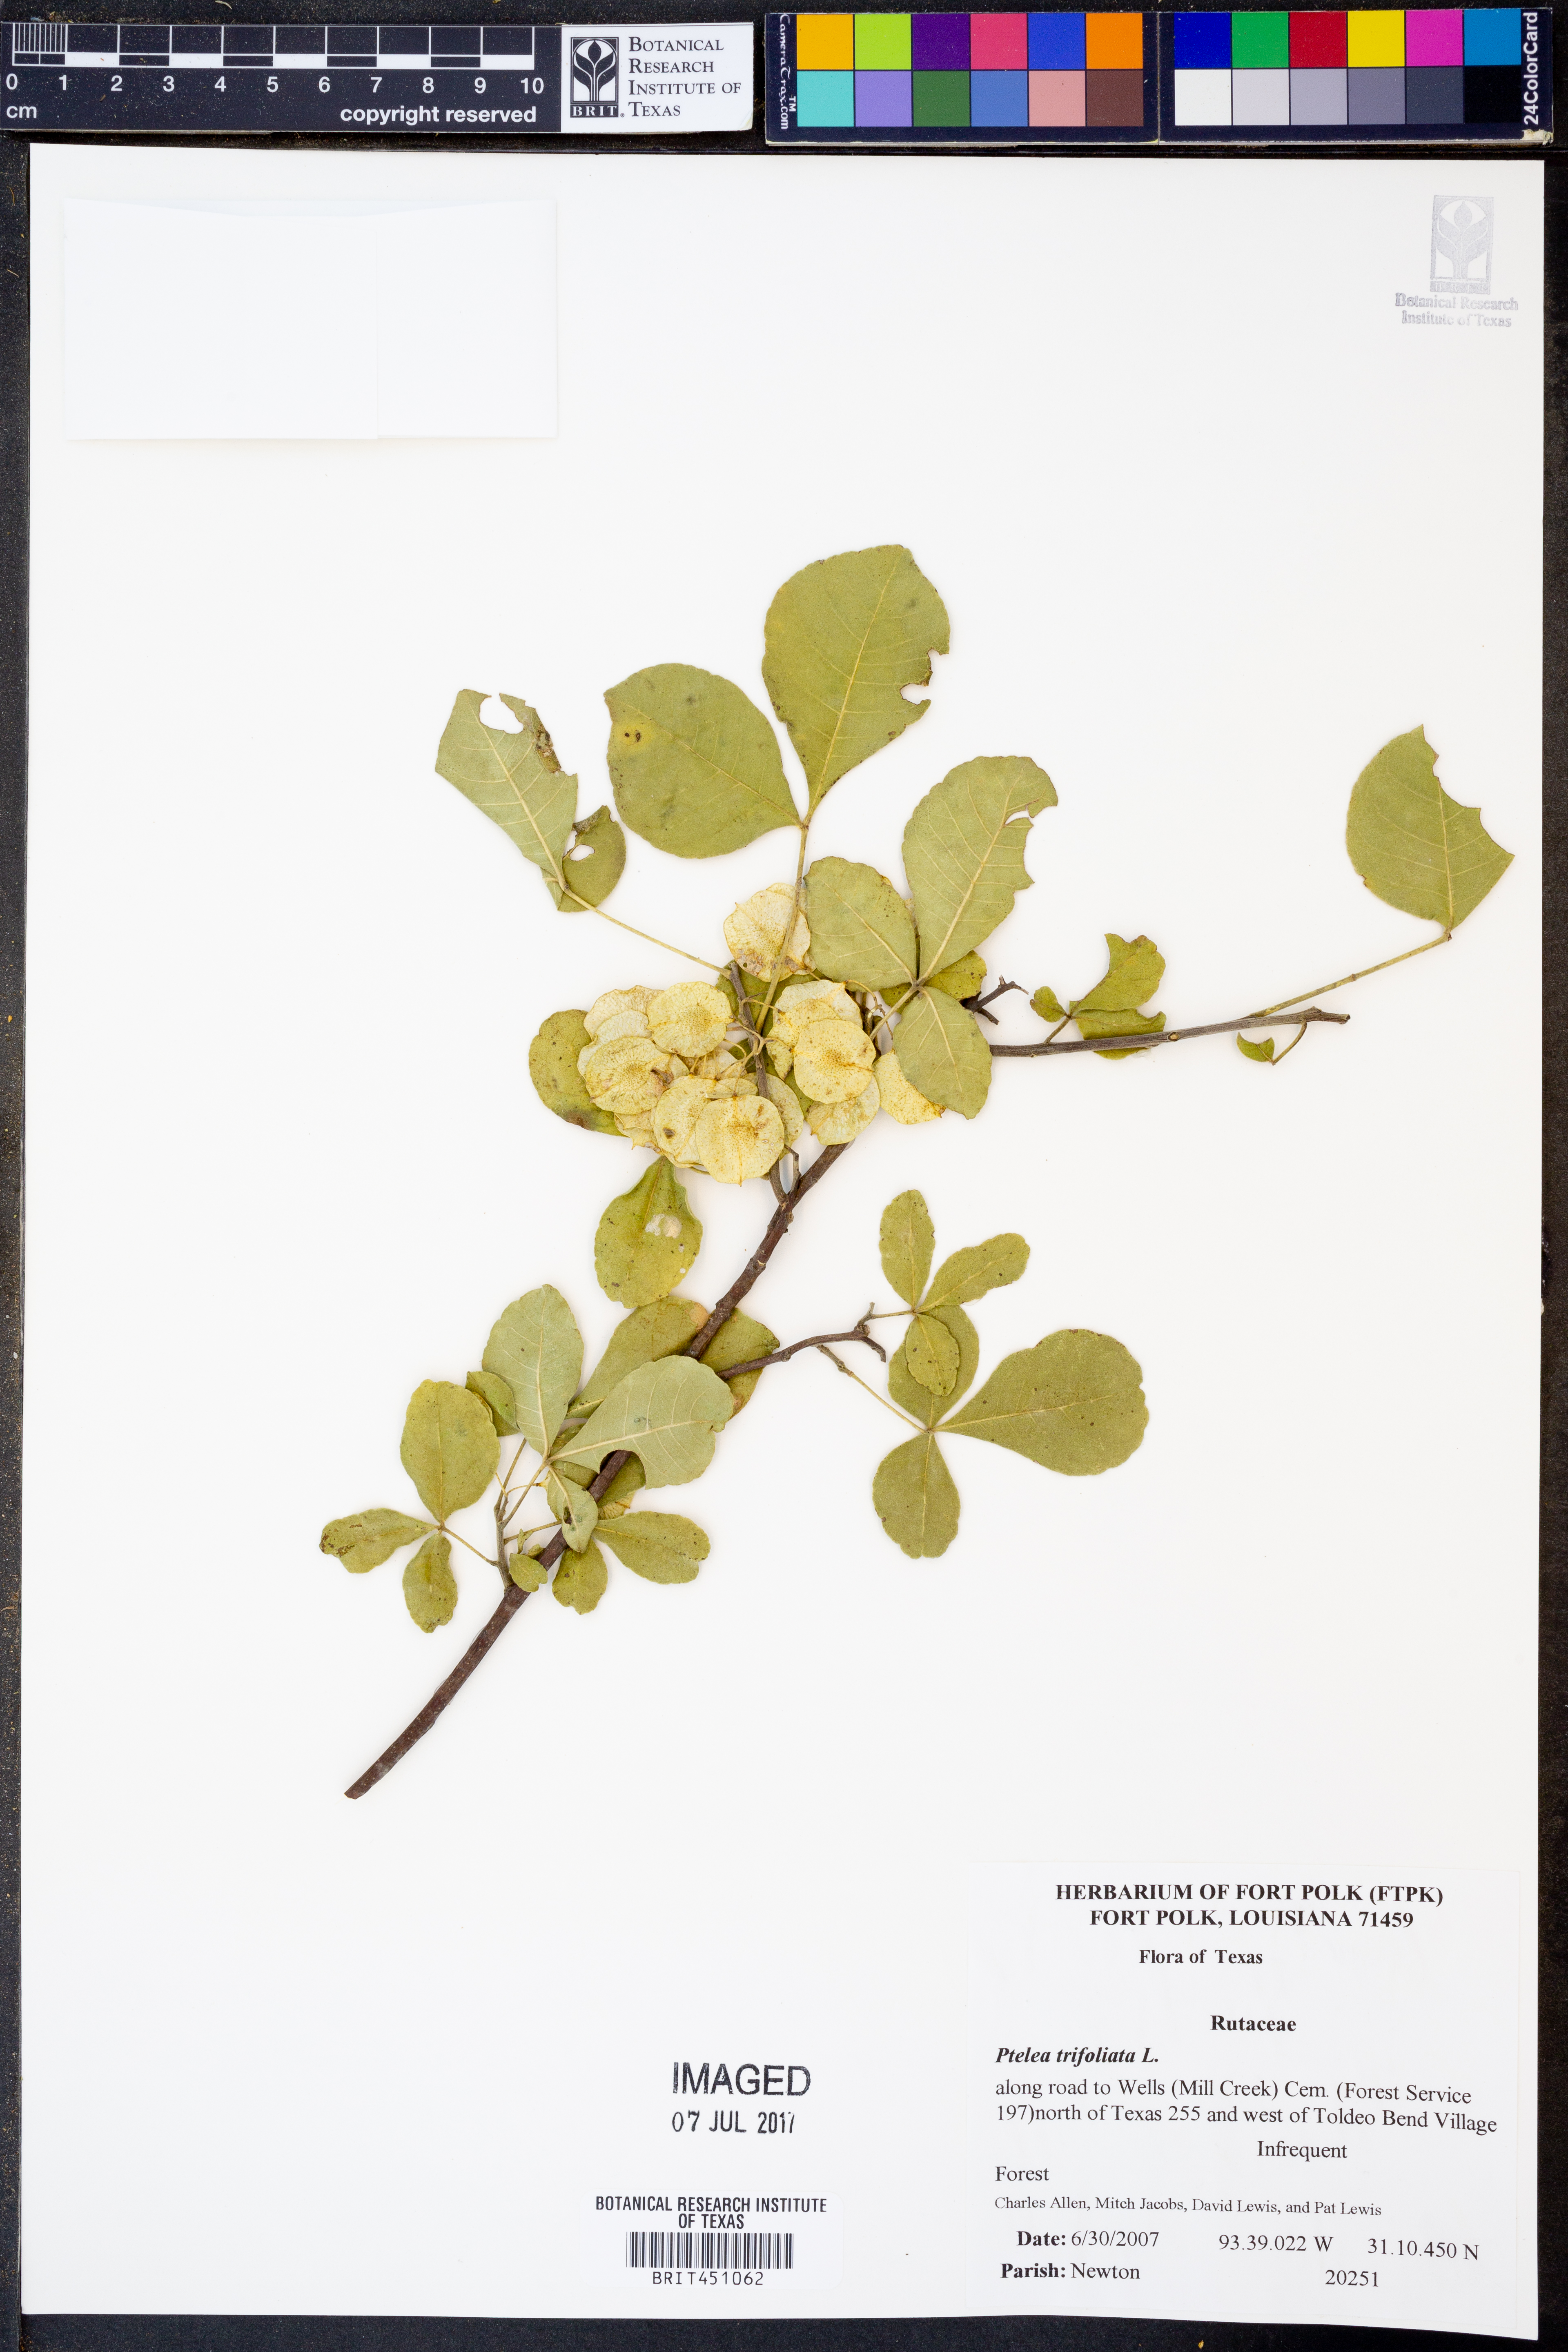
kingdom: Plantae
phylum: Tracheophyta
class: Magnoliopsida
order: Sapindales
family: Rutaceae
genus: Ptelea
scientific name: Ptelea trifoliata
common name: Common hop-tree
